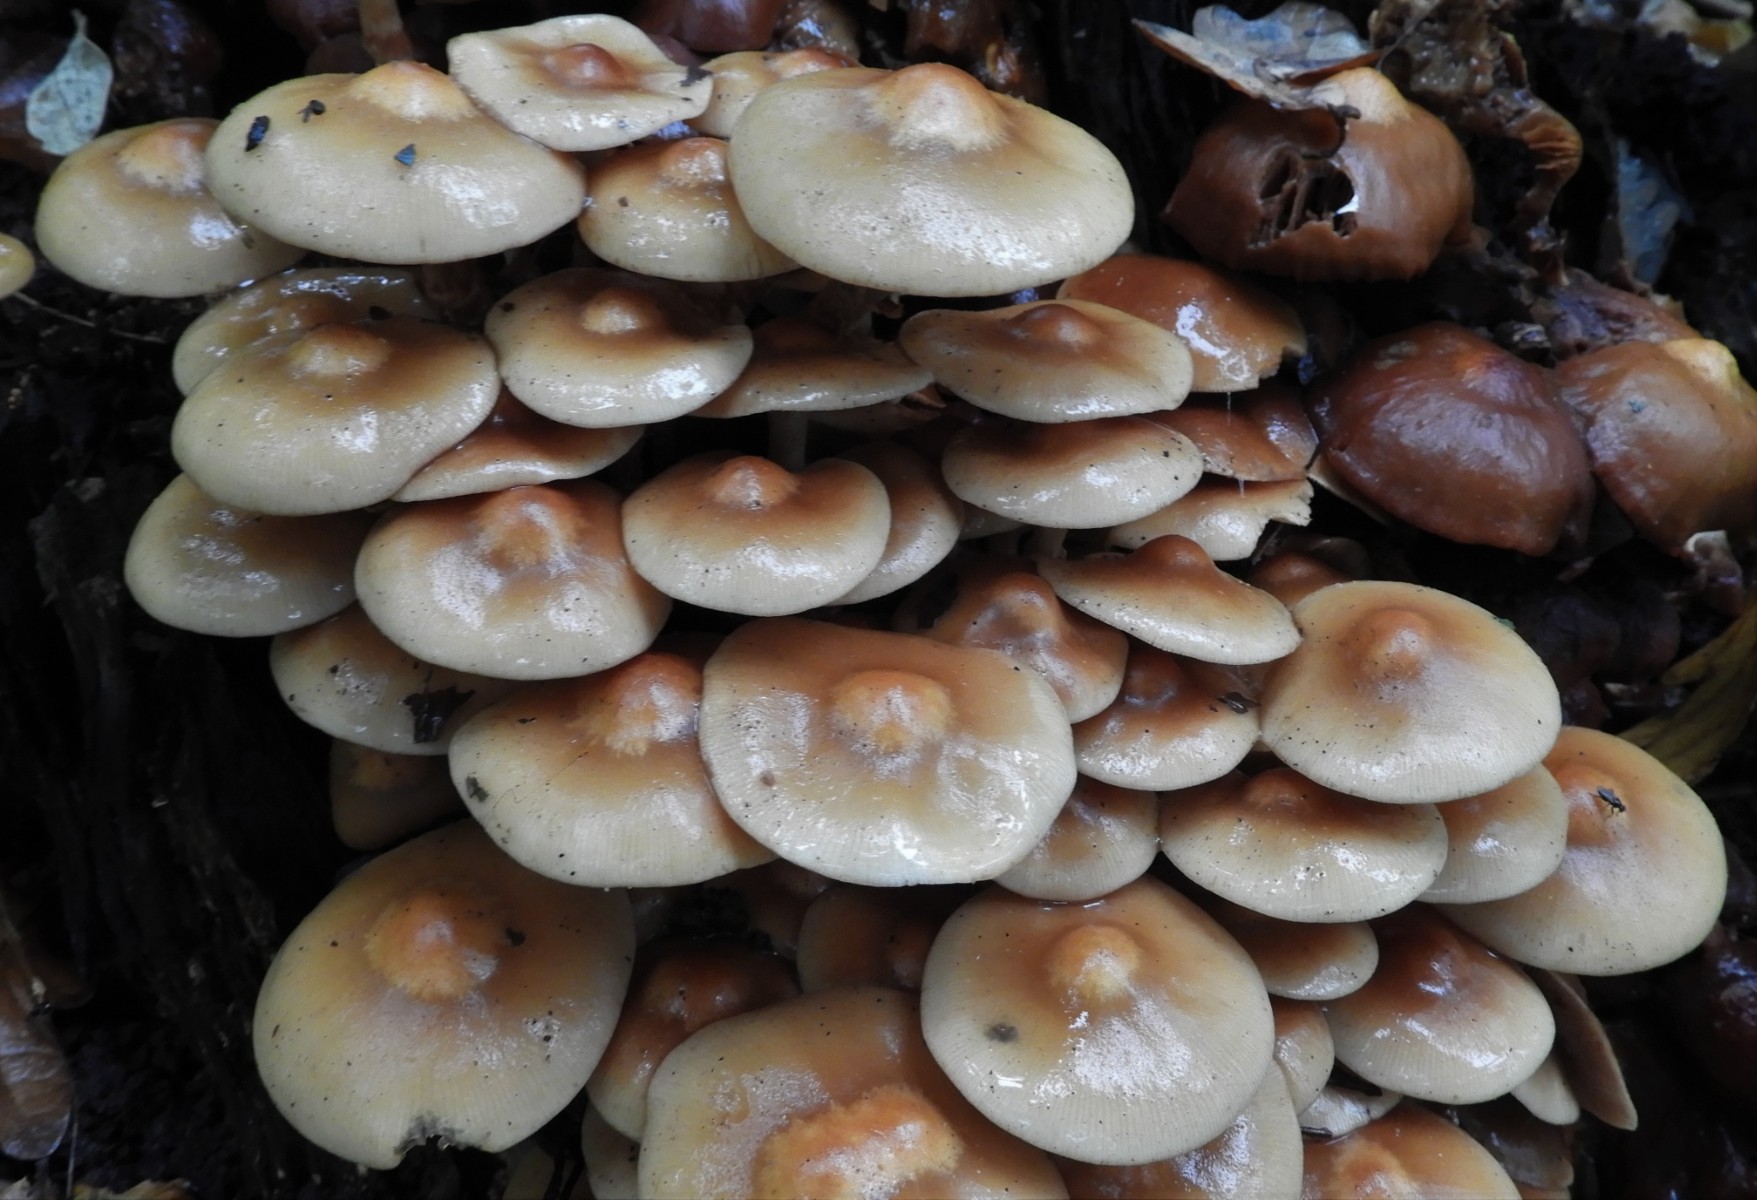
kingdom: Fungi
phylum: Basidiomycota
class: Agaricomycetes
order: Agaricales
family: Strophariaceae
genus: Kuehneromyces
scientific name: Kuehneromyces mutabilis
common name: foranderlig skælhat
